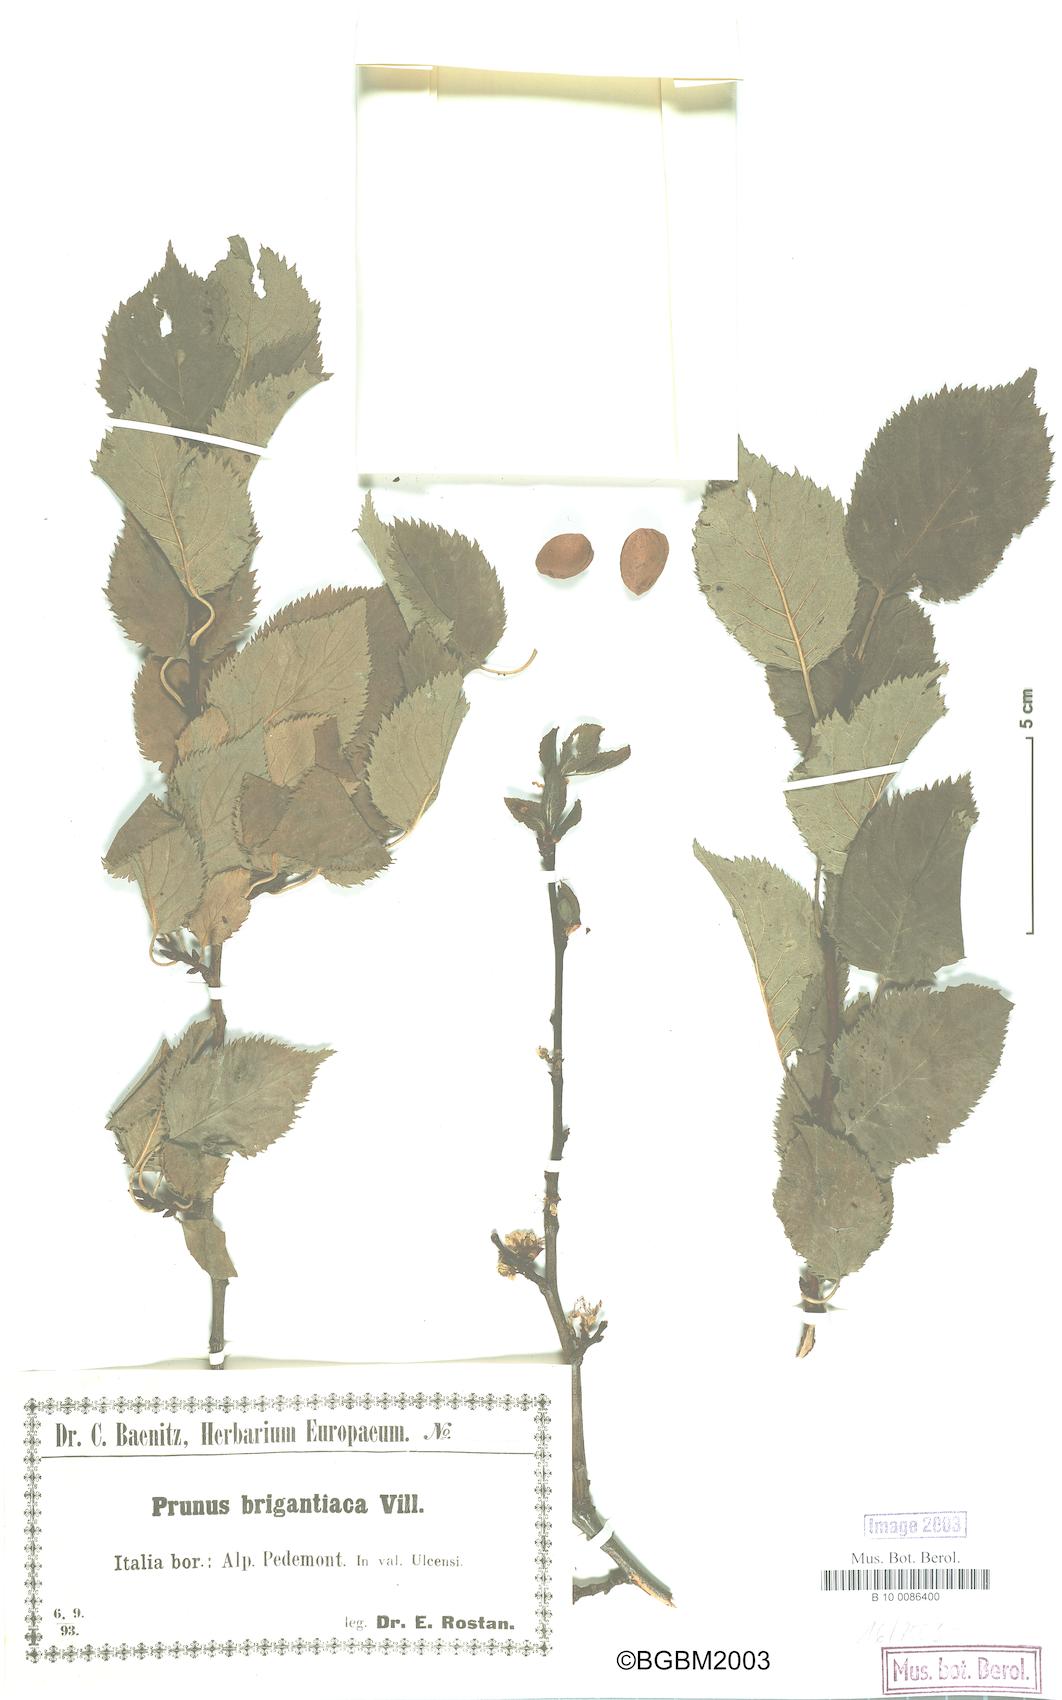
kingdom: Plantae
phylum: Tracheophyta
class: Magnoliopsida
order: Rosales
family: Rosaceae
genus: Prunus
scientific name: Prunus brigantina
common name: Briançon apricot
